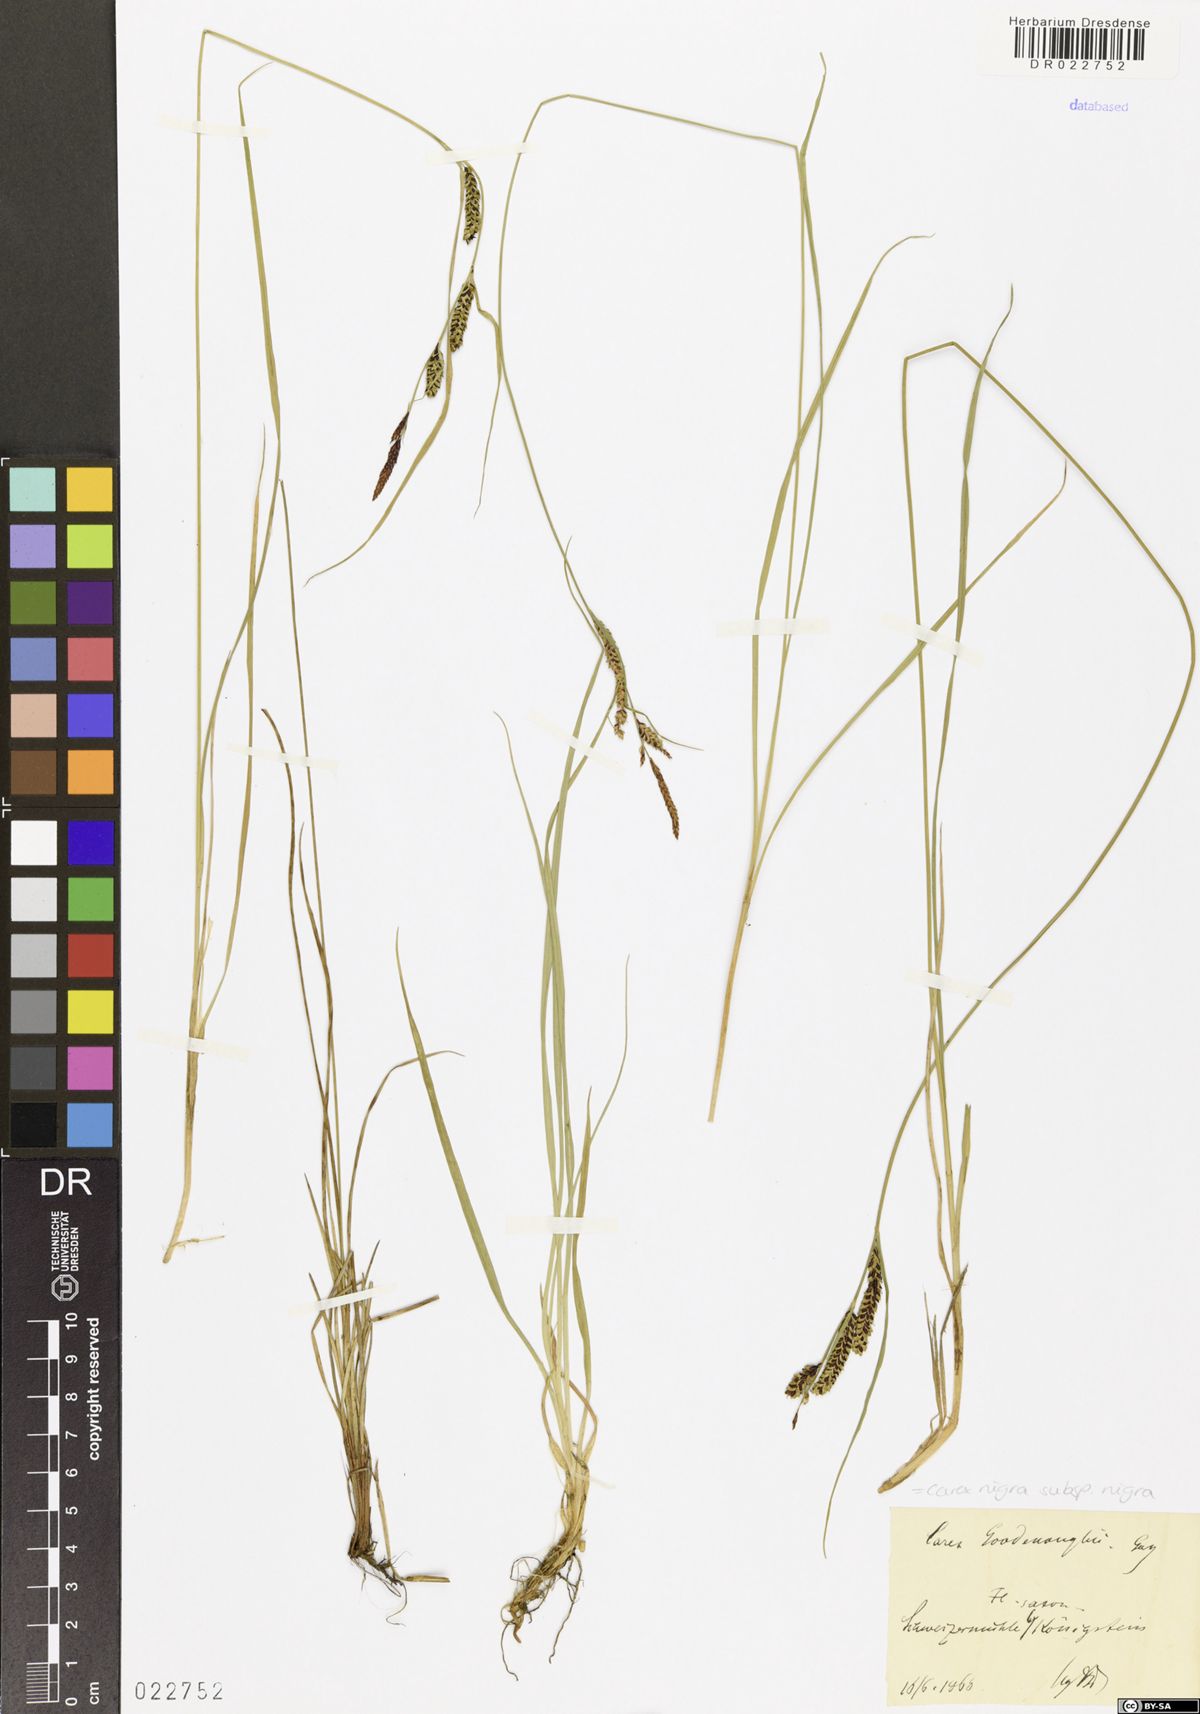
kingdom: Plantae
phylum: Tracheophyta
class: Liliopsida
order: Poales
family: Cyperaceae
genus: Carex
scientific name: Carex nigra
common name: Common sedge
